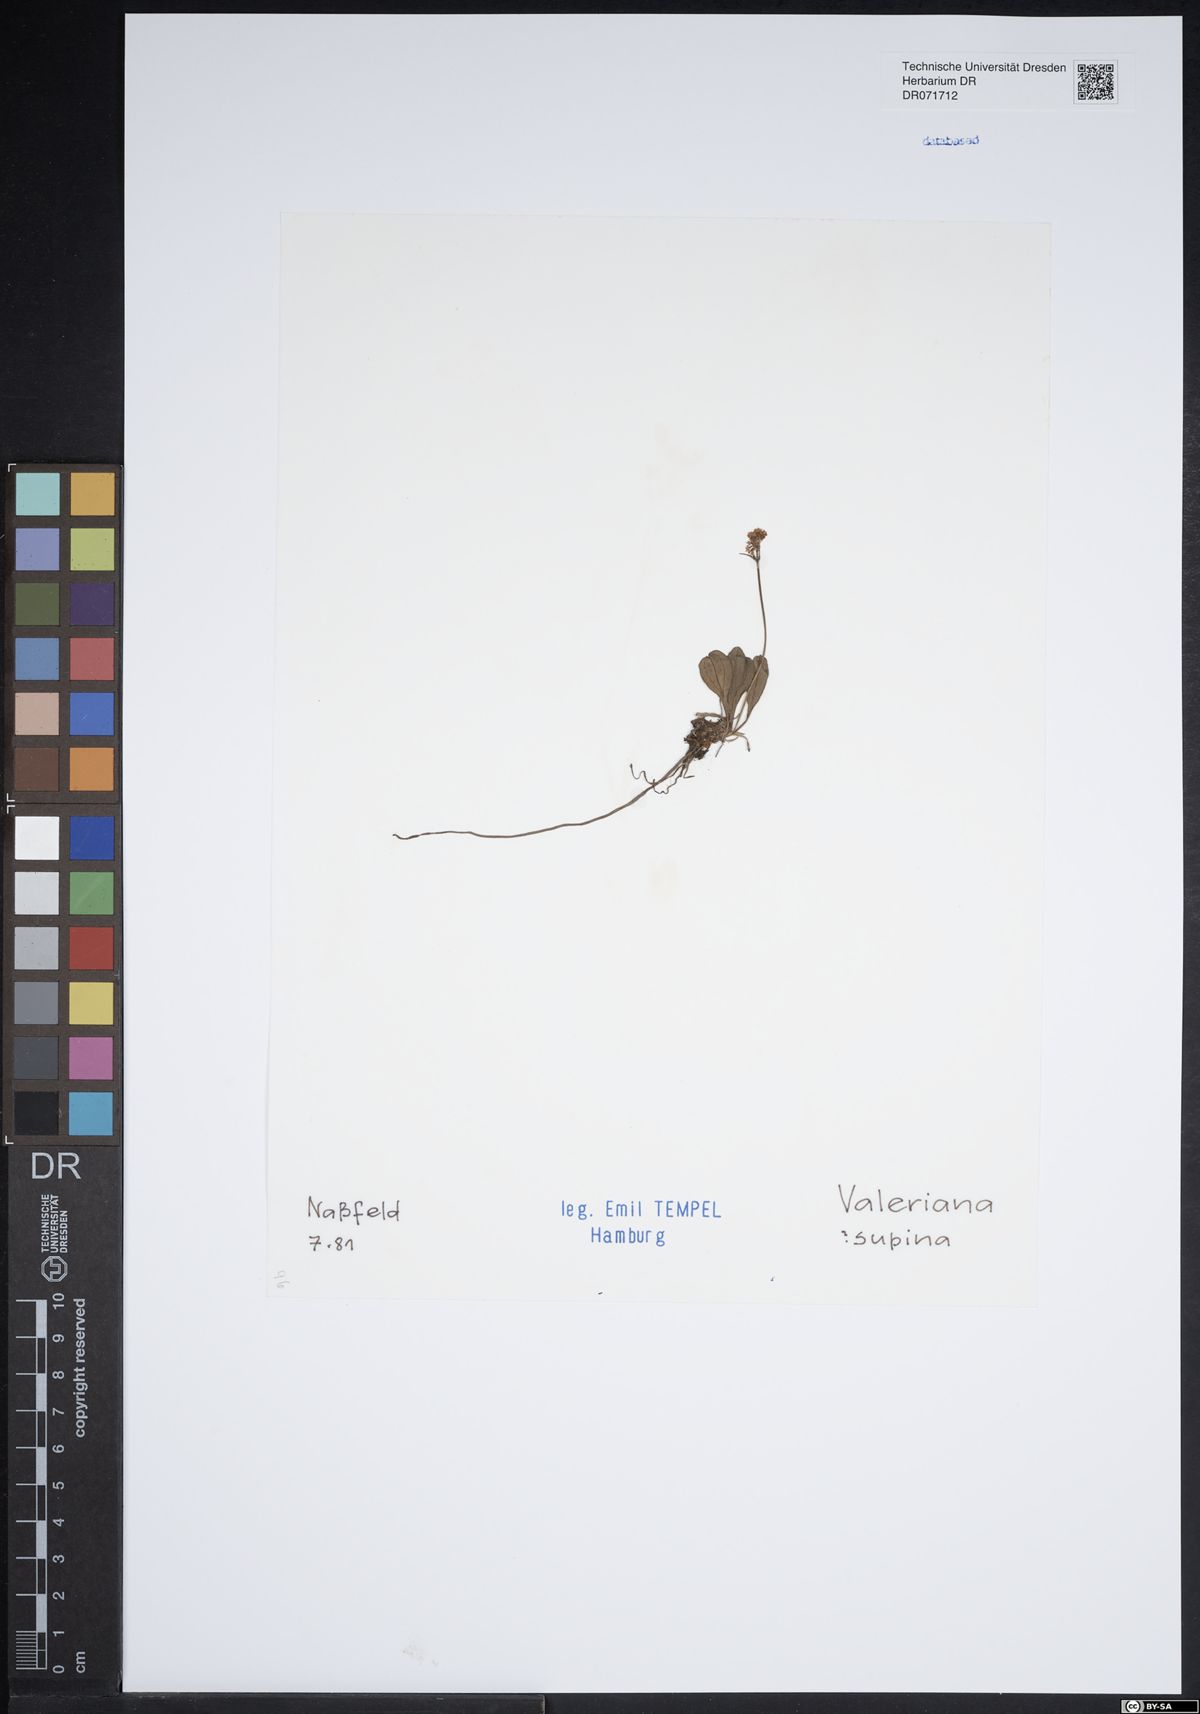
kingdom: Plantae
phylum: Tracheophyta
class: Magnoliopsida
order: Dipsacales
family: Caprifoliaceae
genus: Valeriana
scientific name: Valeriana supina
